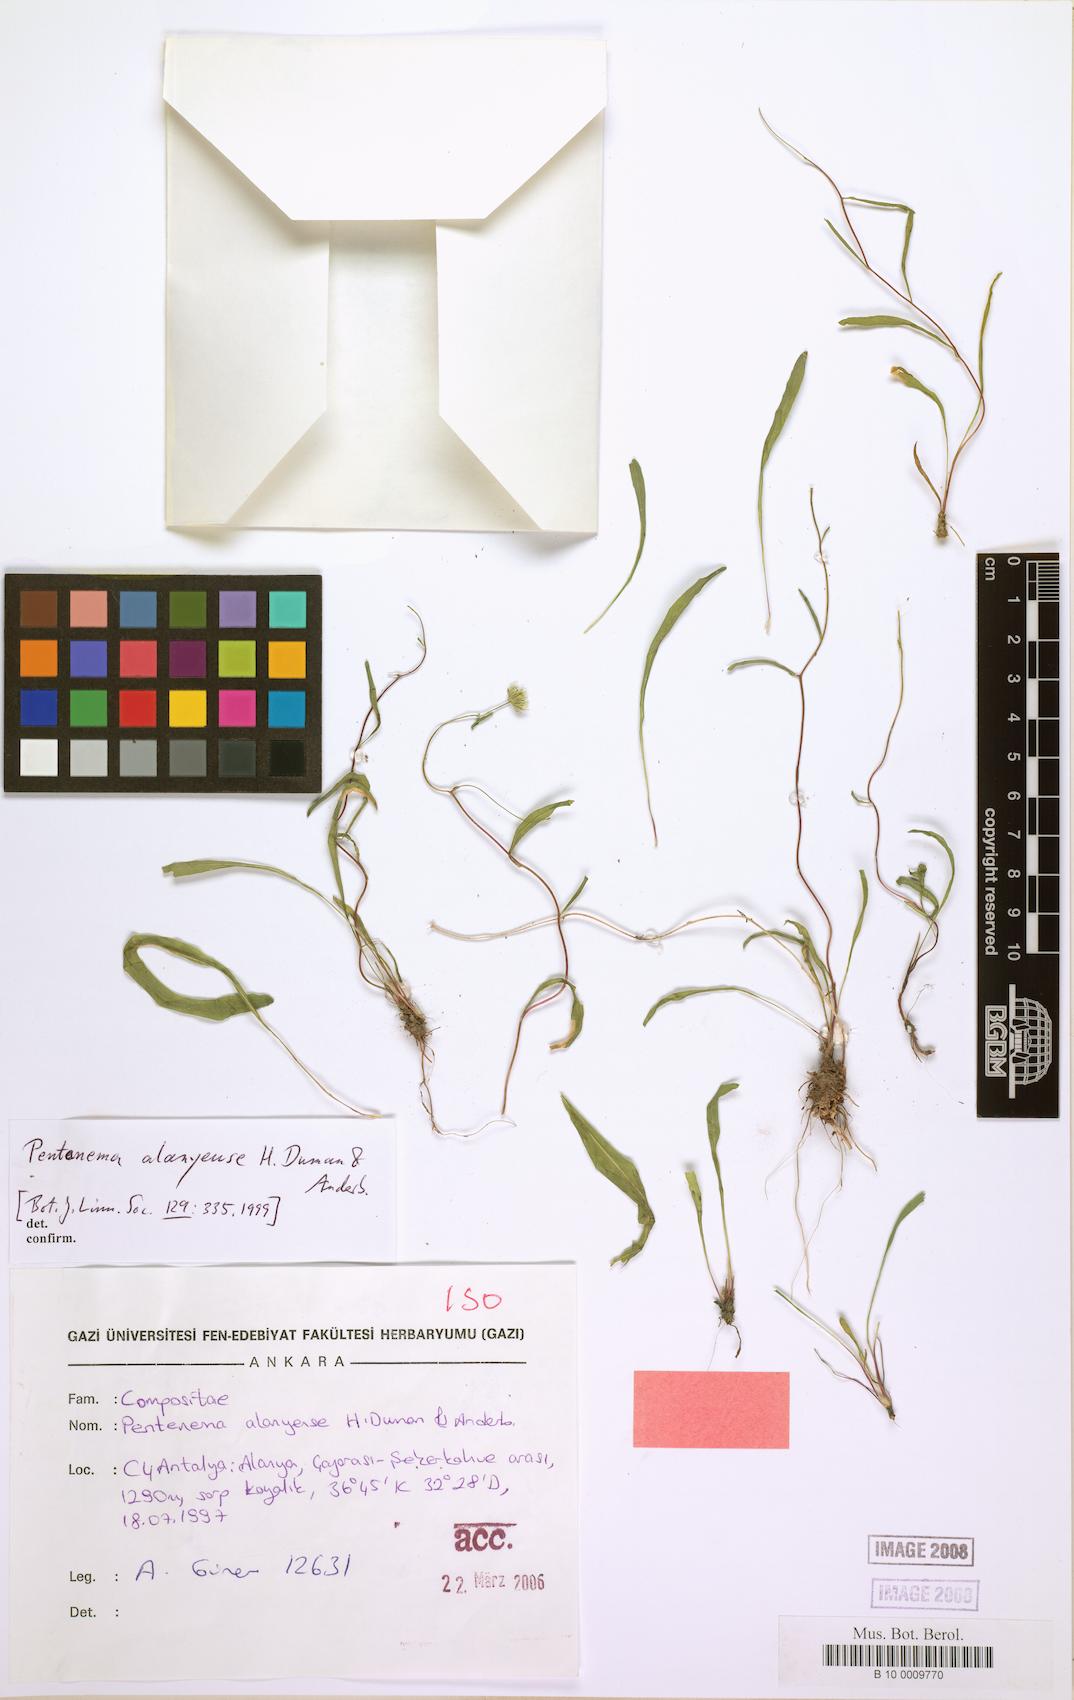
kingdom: Plantae
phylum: Tracheophyta
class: Magnoliopsida
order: Asterales
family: Asteraceae
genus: Pentanema
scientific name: Pentanema alanyense
